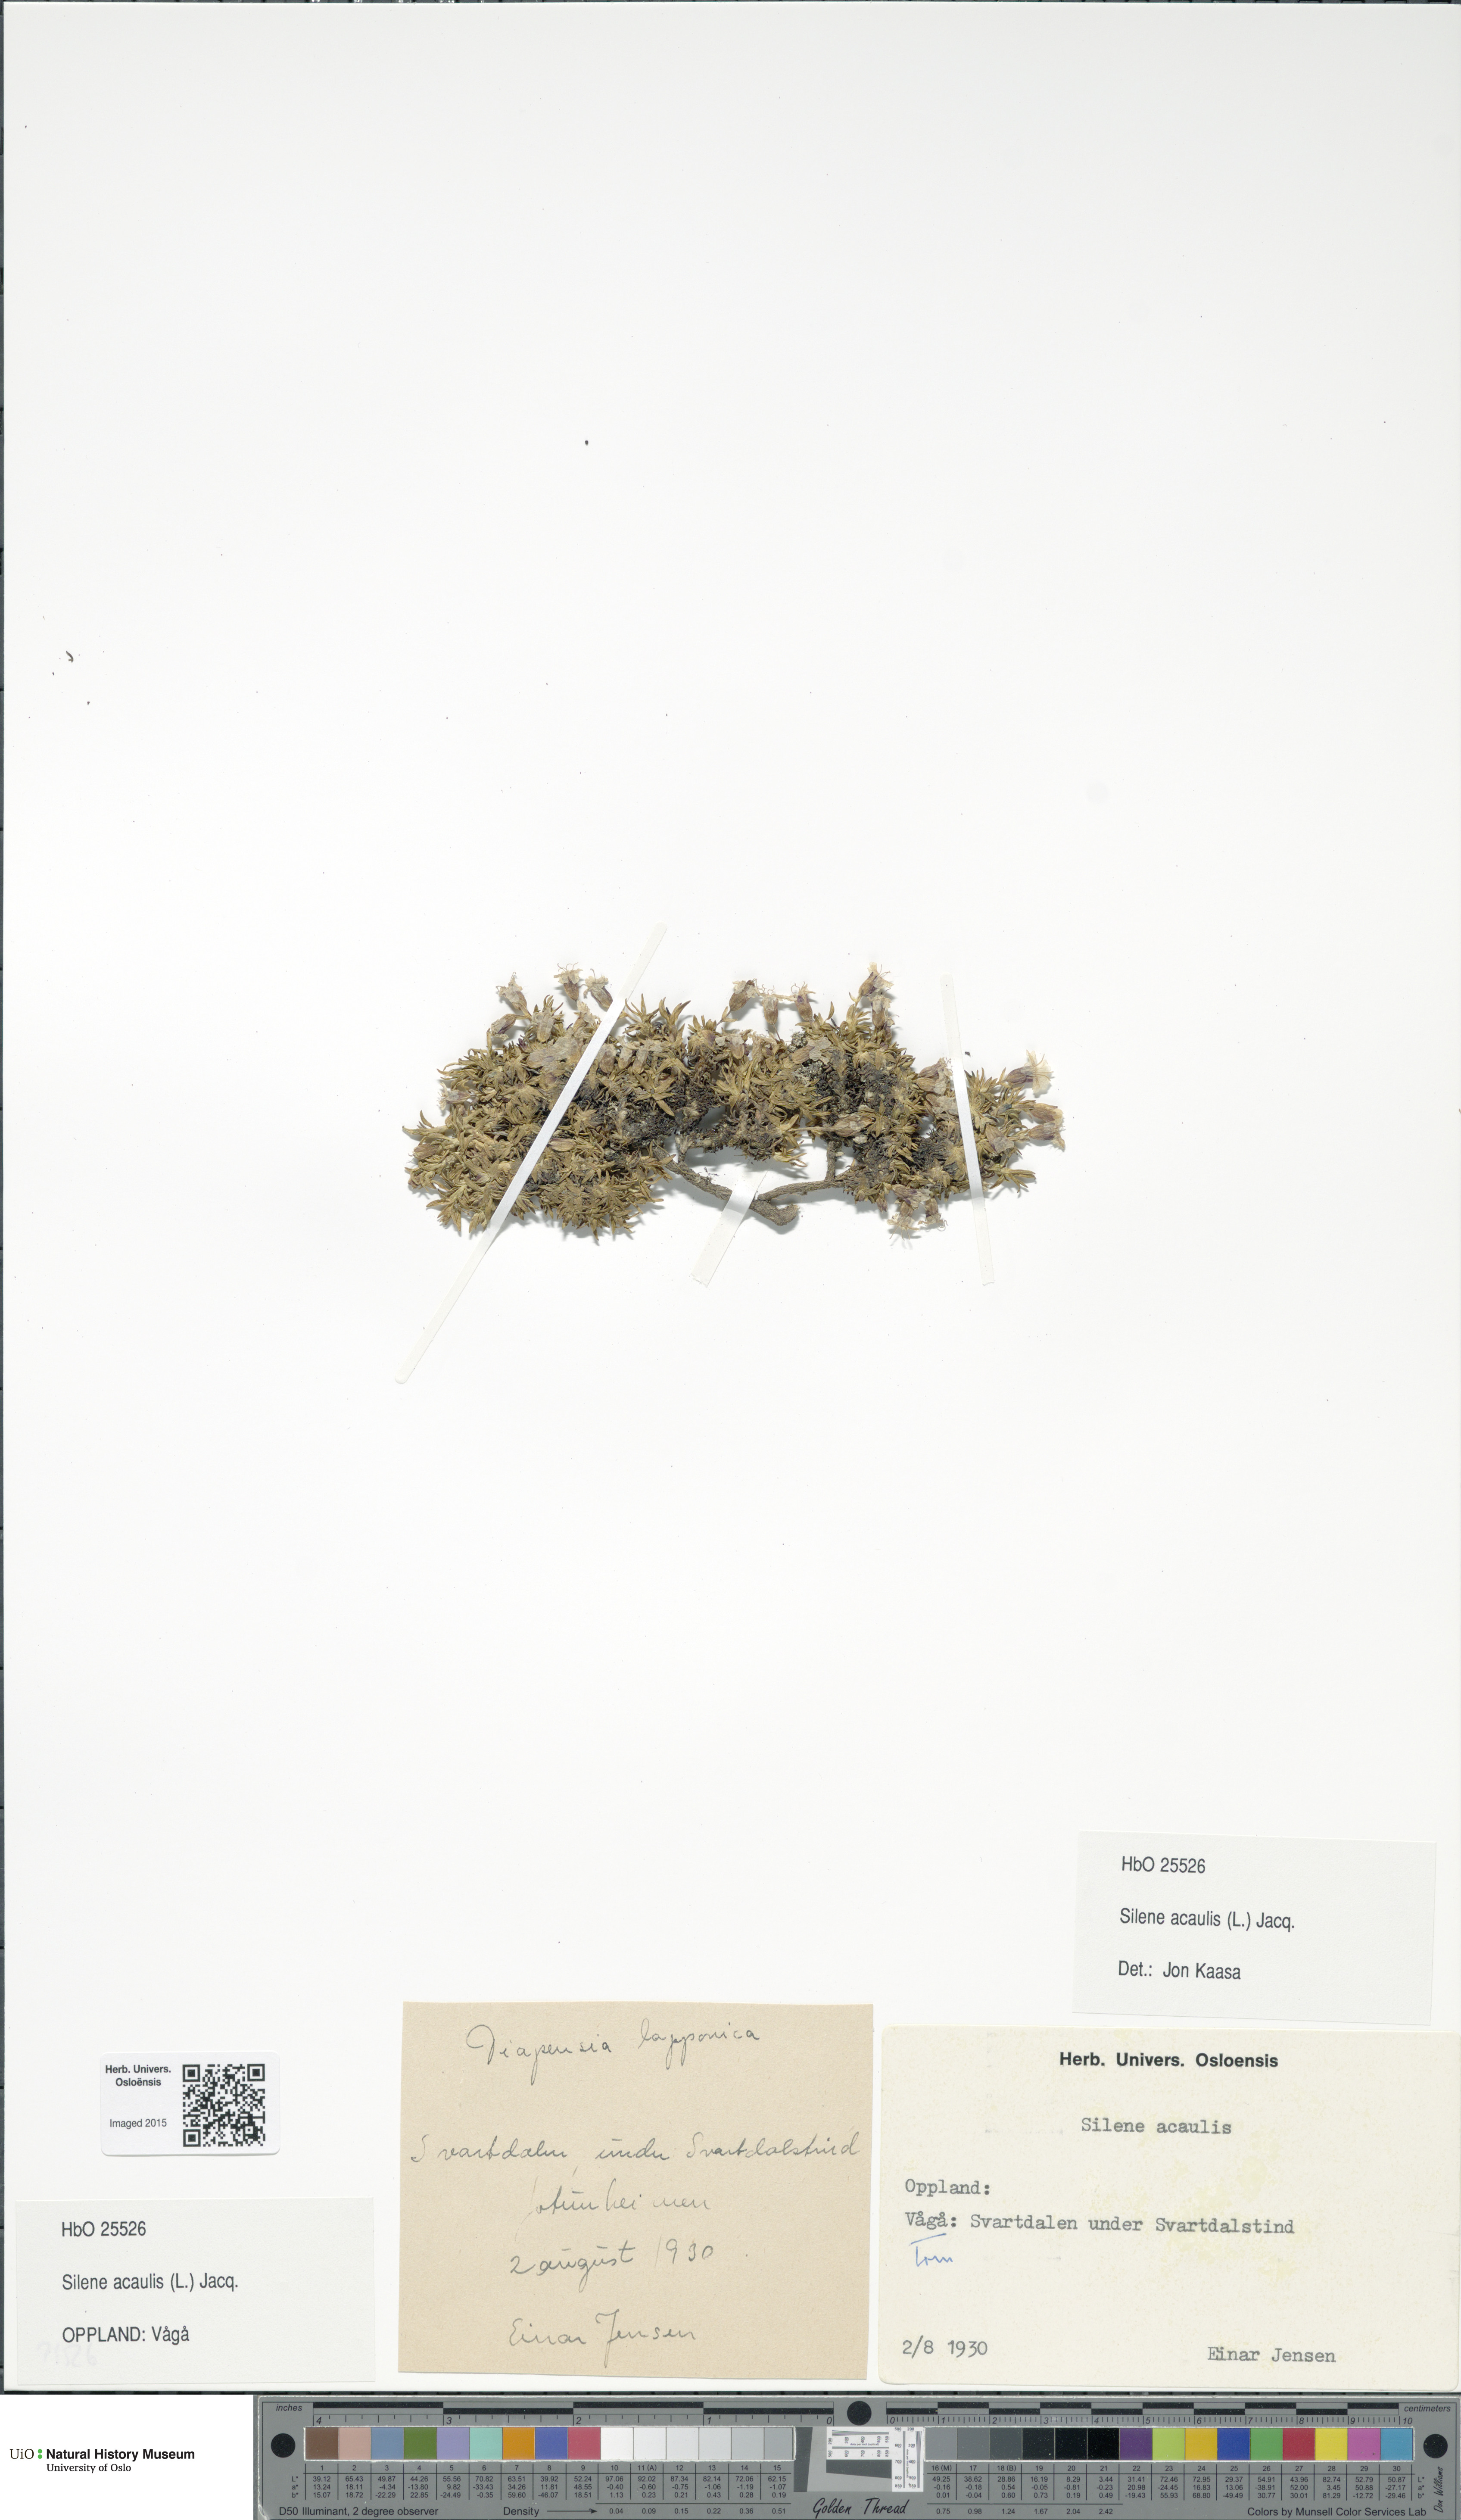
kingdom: Plantae
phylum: Tracheophyta
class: Magnoliopsida
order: Caryophyllales
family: Caryophyllaceae
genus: Silene
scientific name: Silene acaulis
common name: Moss campion
